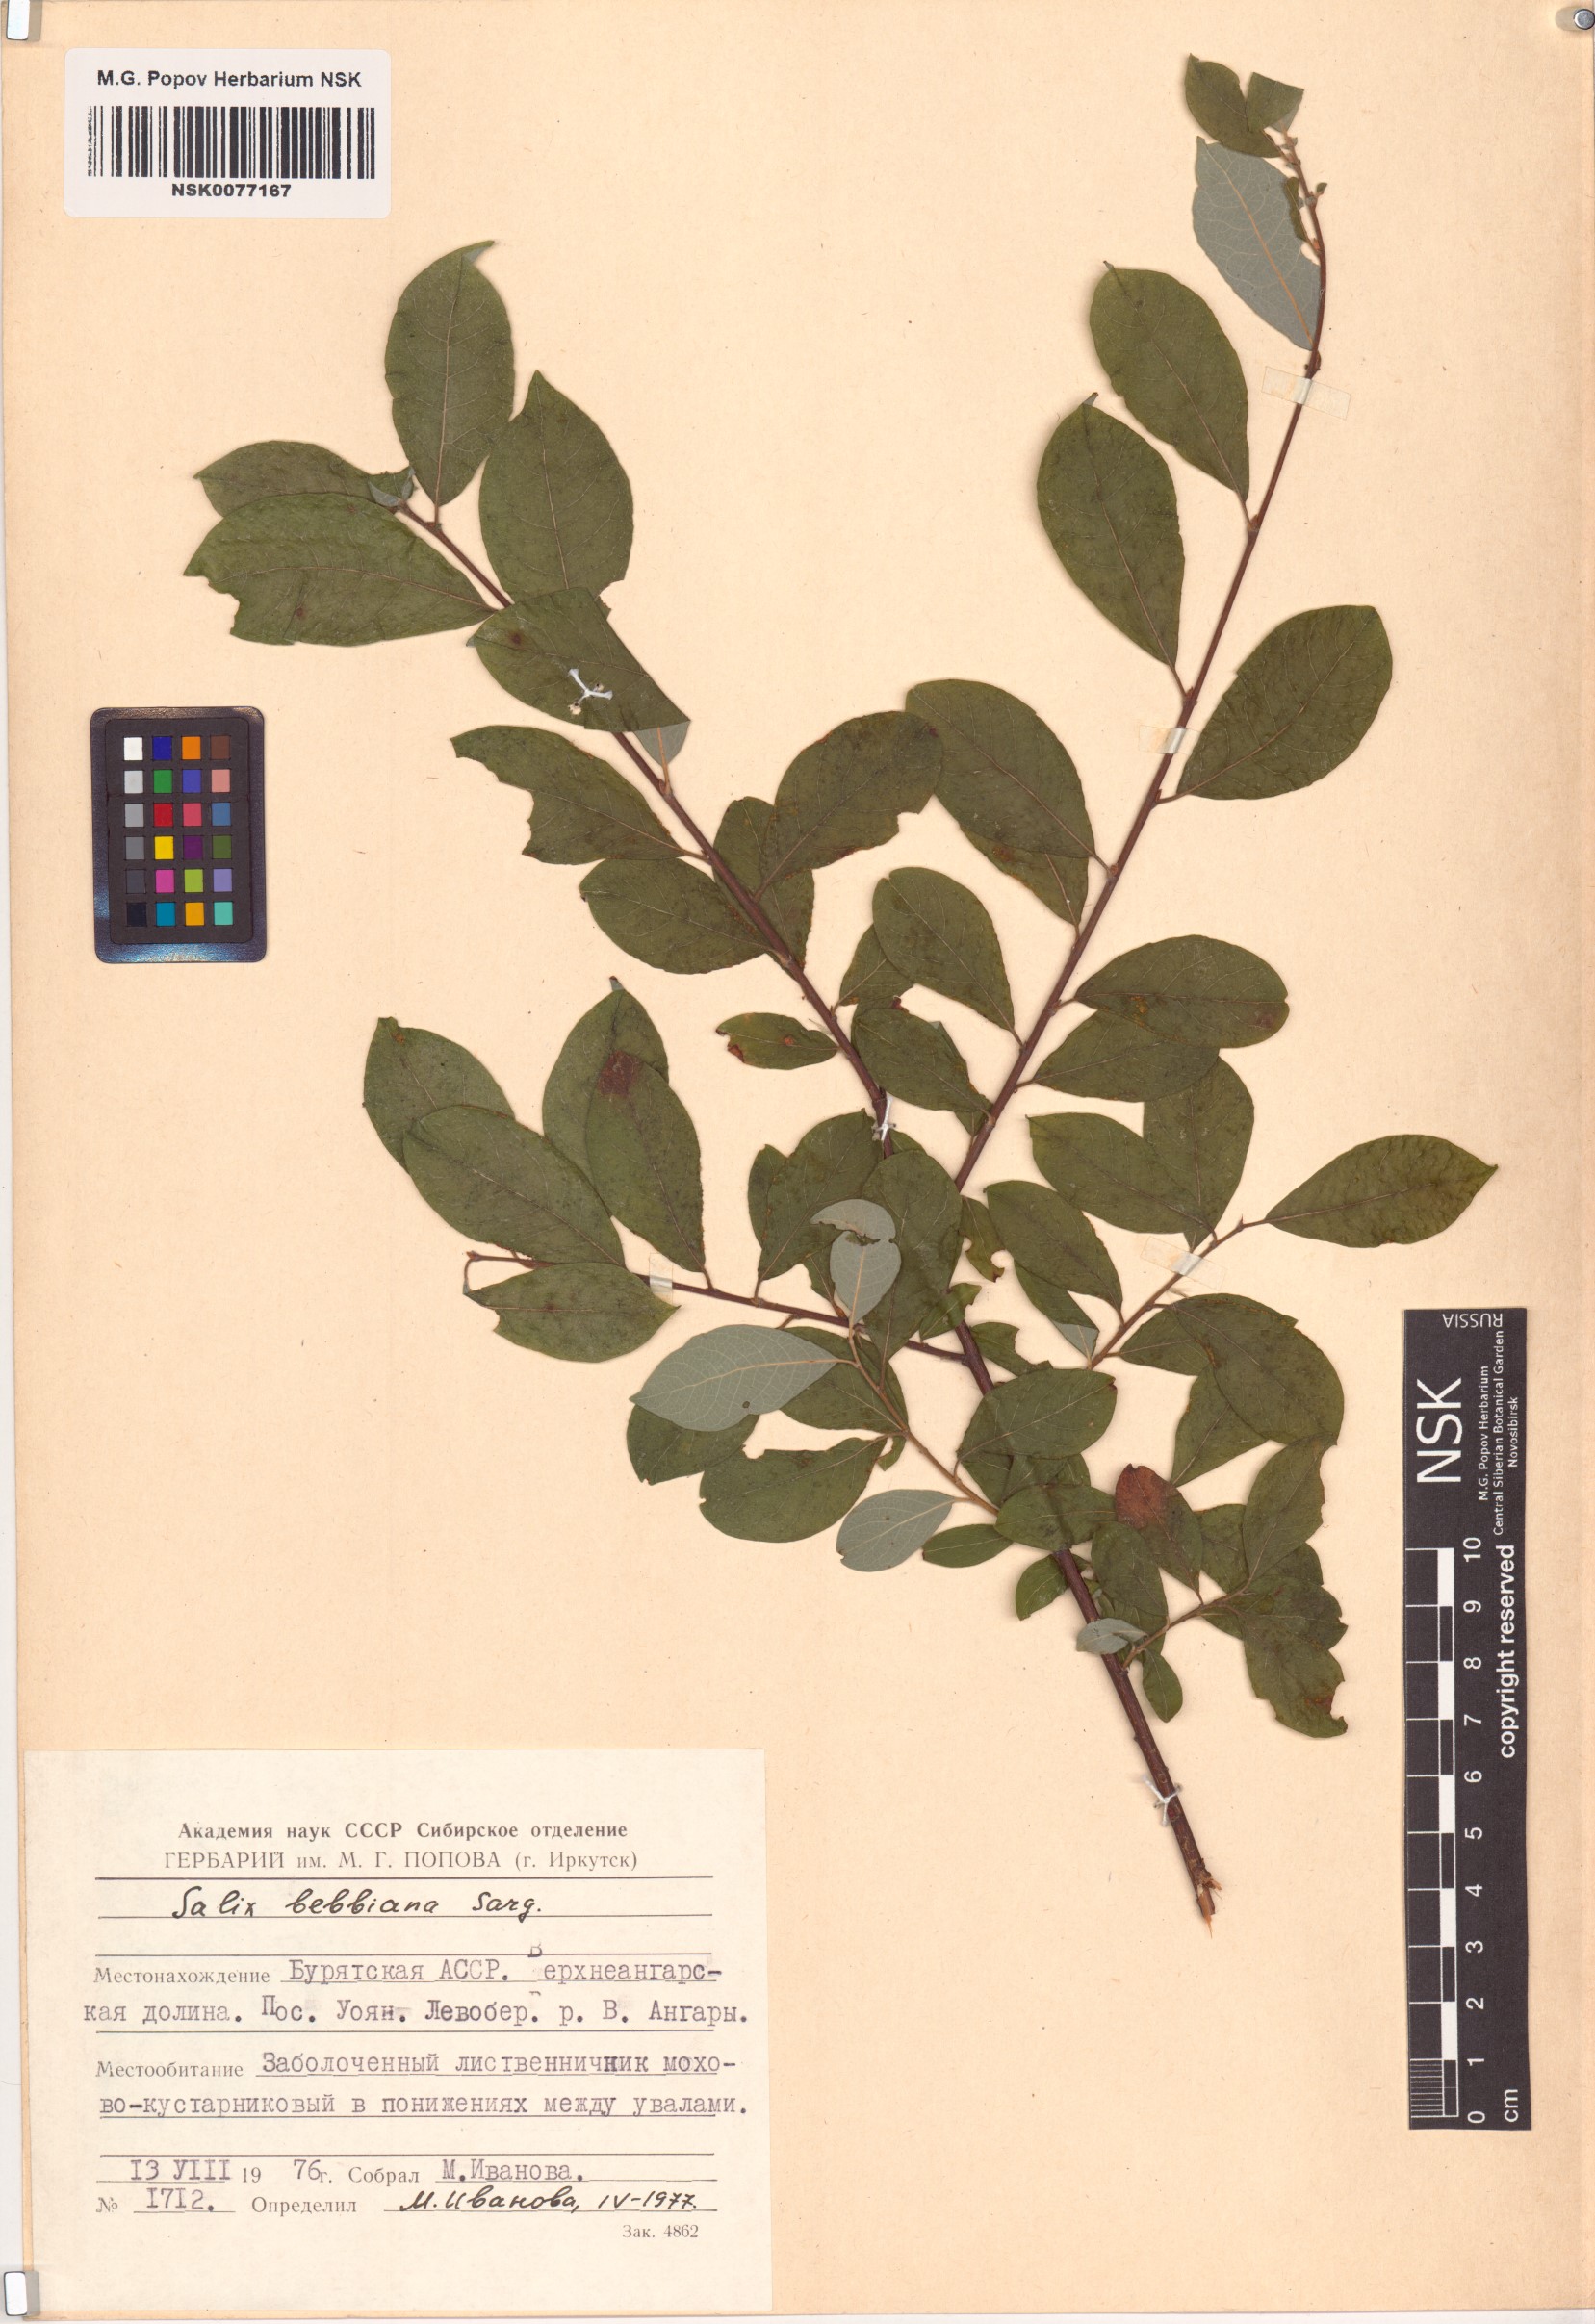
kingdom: Plantae
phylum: Tracheophyta
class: Magnoliopsida
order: Malpighiales
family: Salicaceae
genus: Salix
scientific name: Salix bebbiana
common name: Bebb's willow
